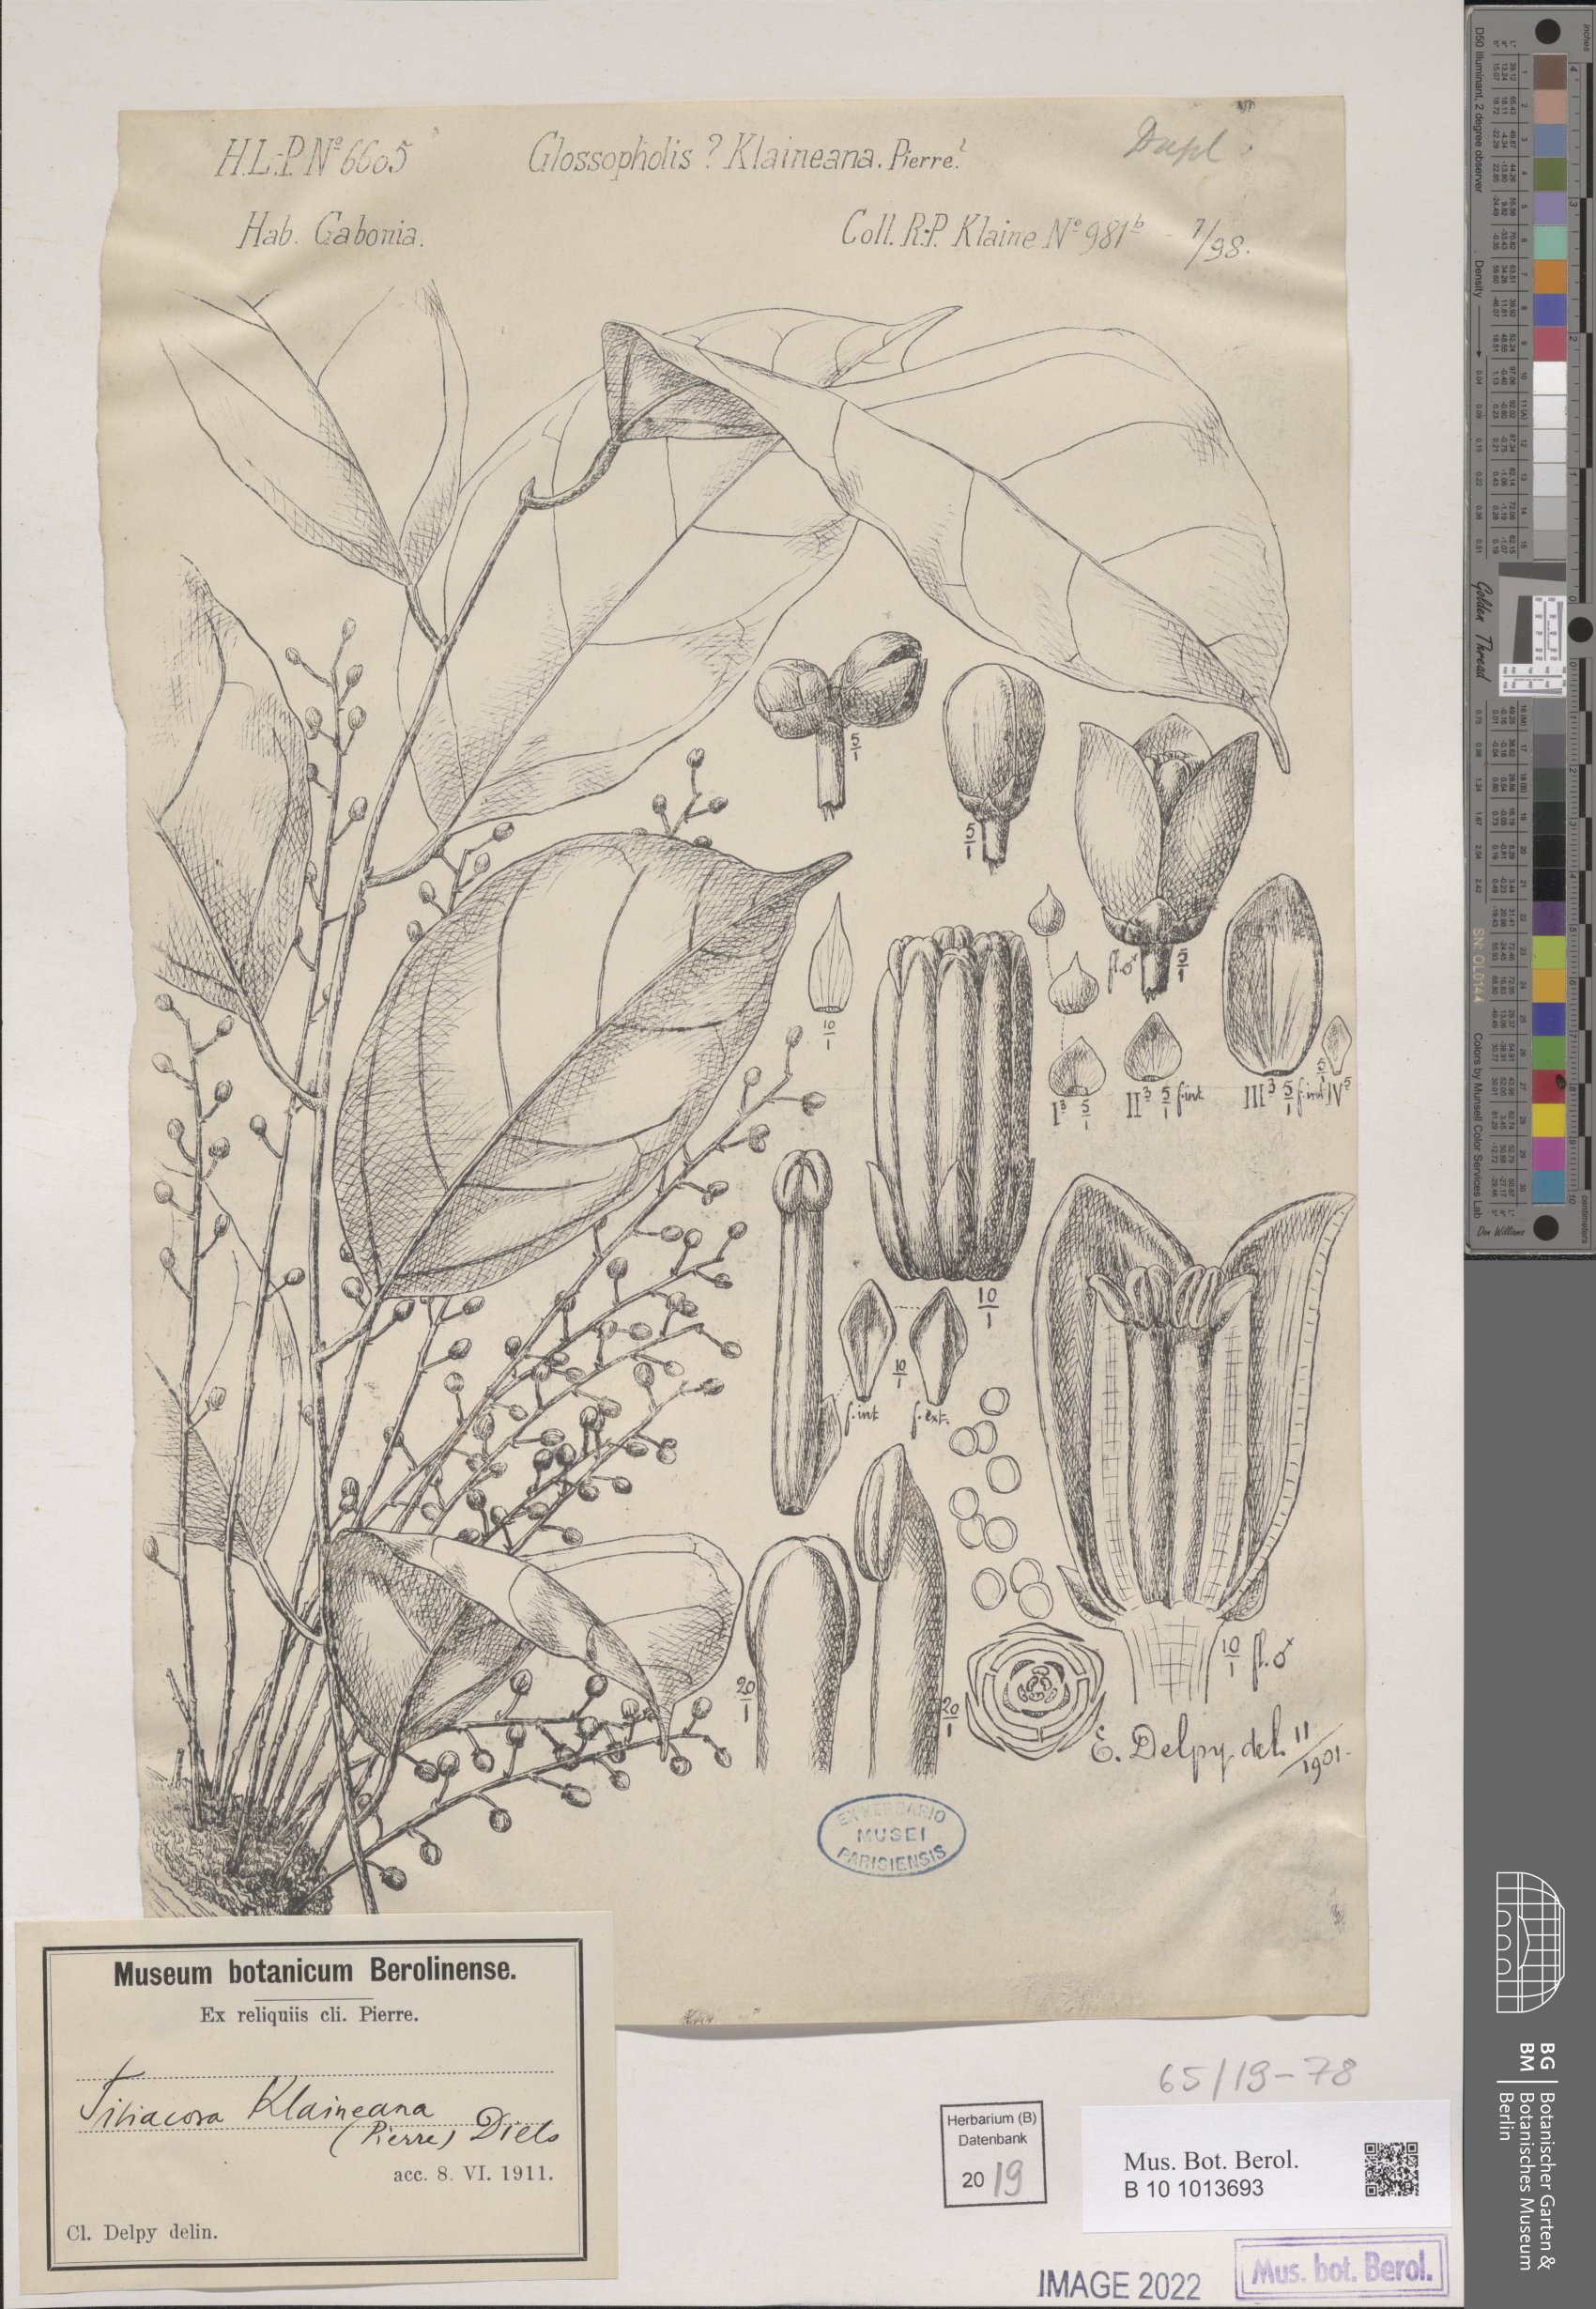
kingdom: Plantae
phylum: Tracheophyta
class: Magnoliopsida
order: Ranunculales
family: Menispermaceae
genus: Tiliacora
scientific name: Tiliacora klaineana
